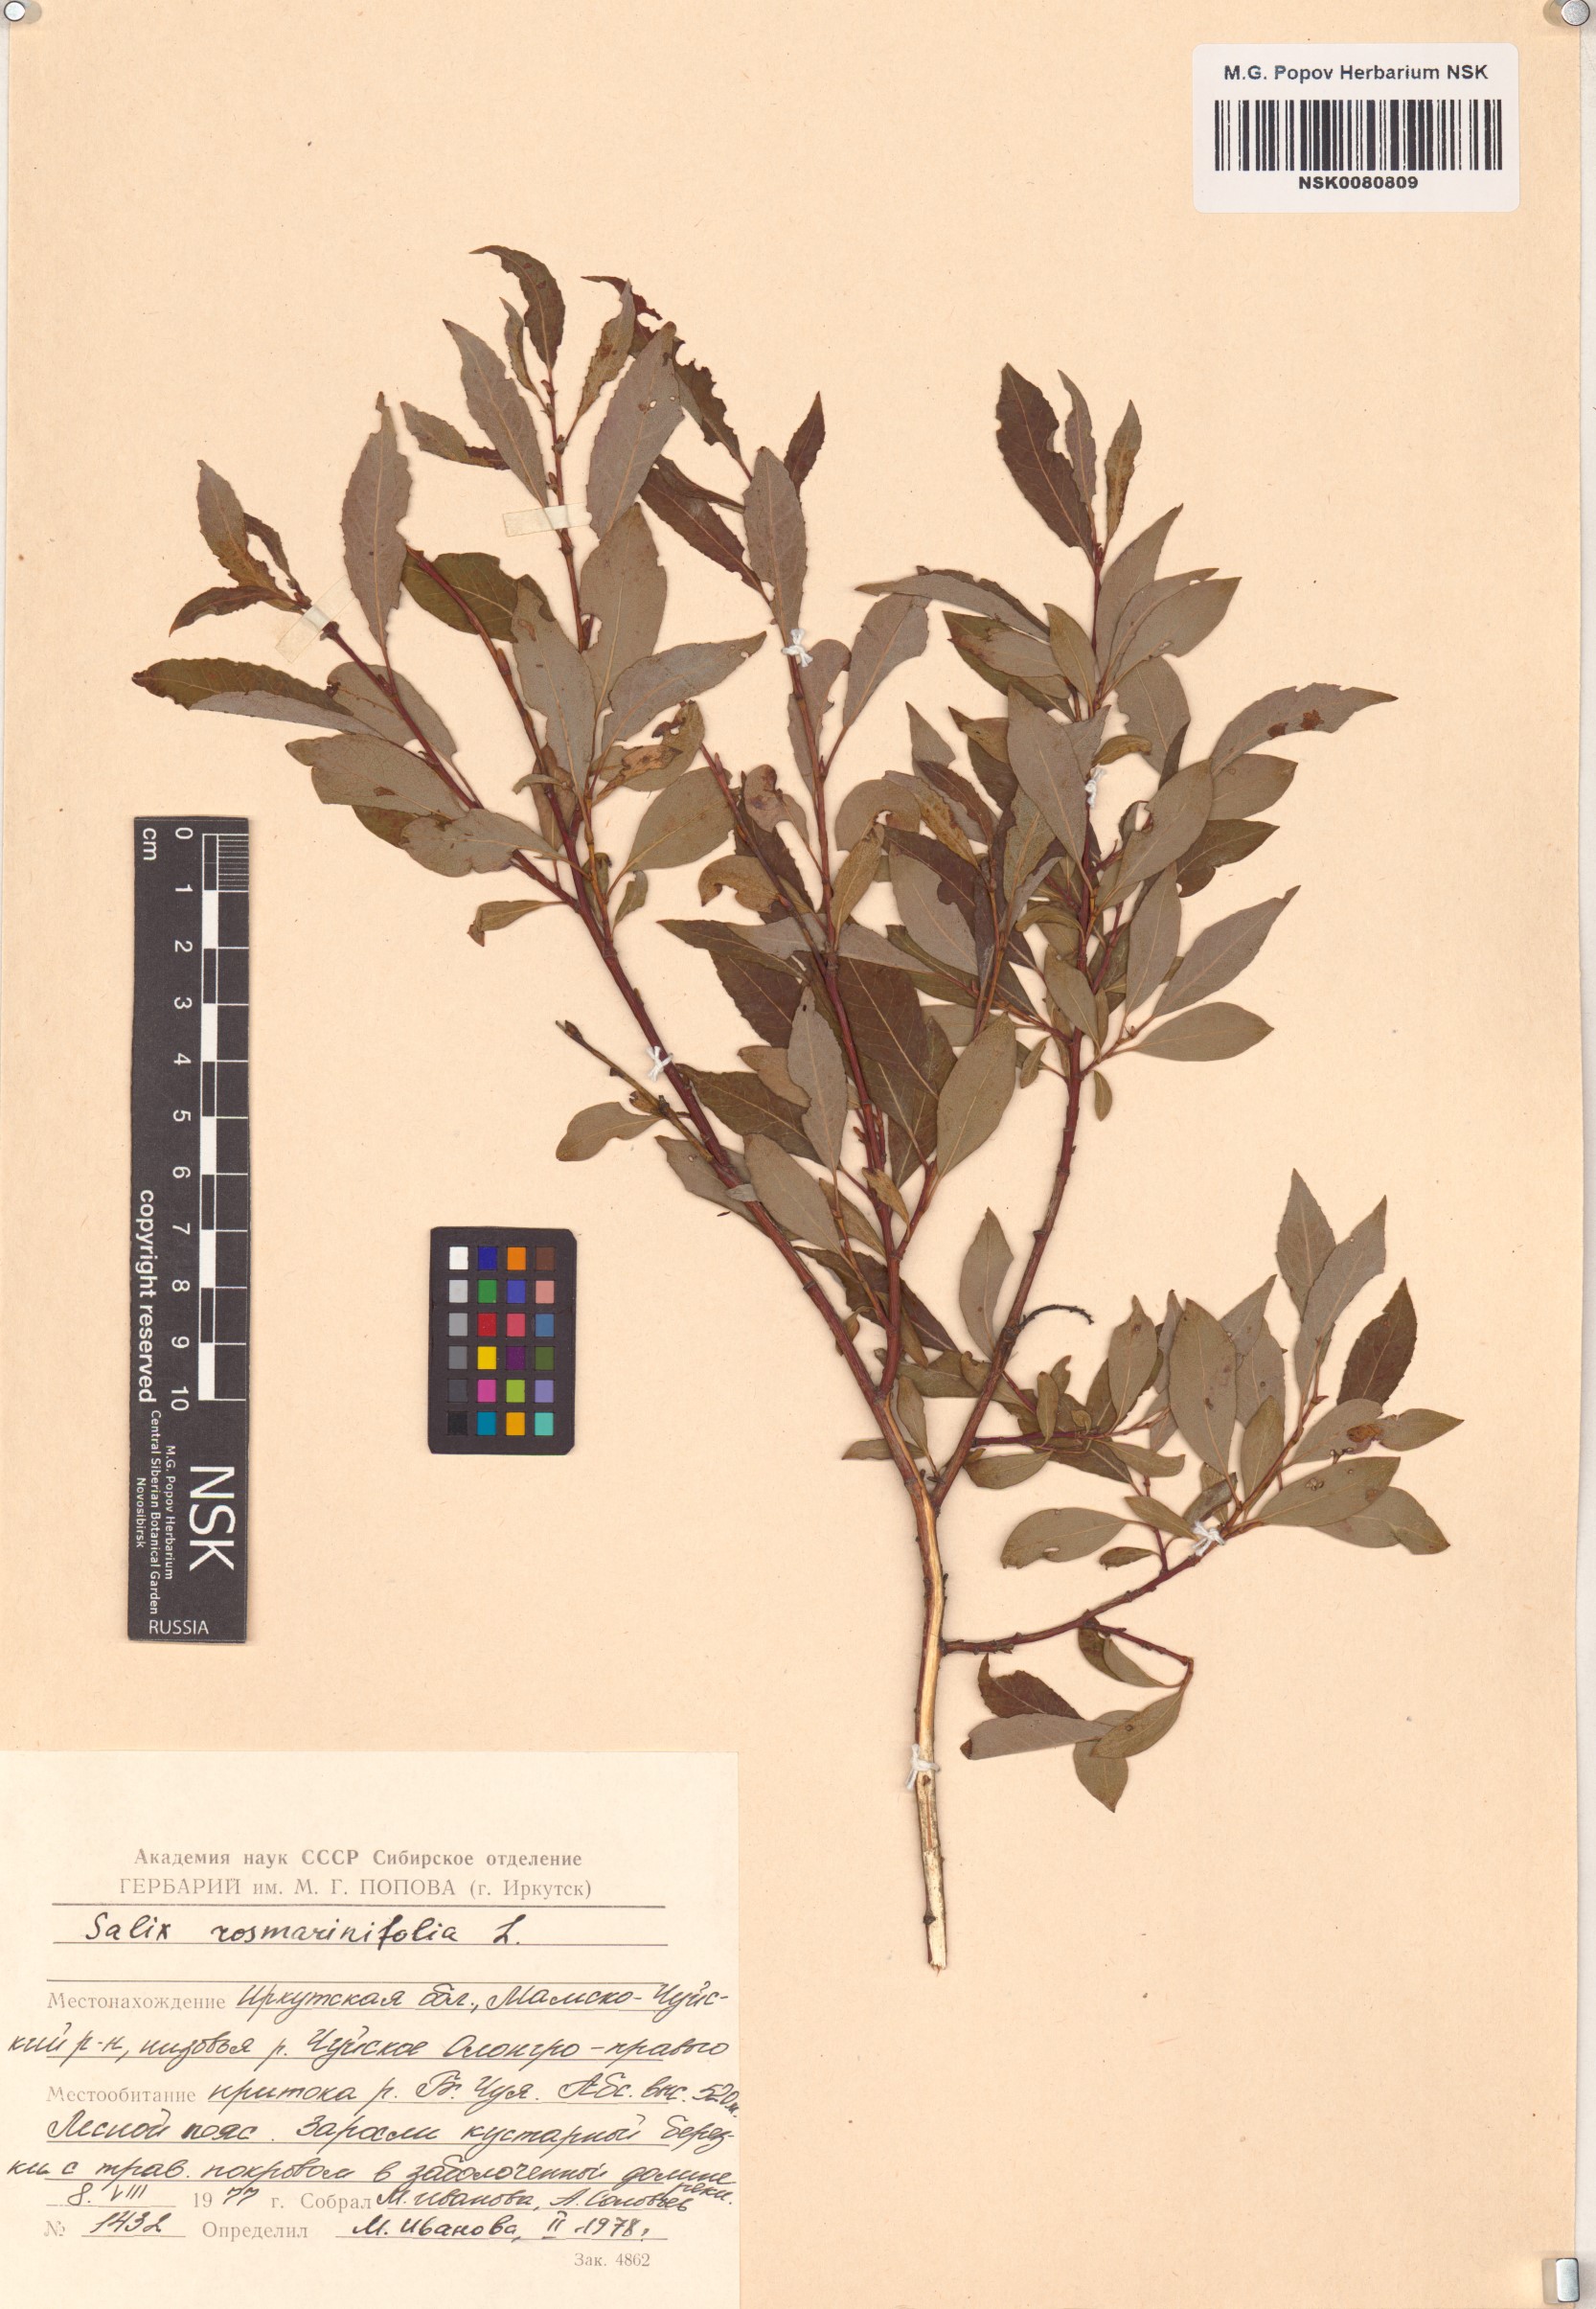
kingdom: Plantae
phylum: Tracheophyta
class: Magnoliopsida
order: Malpighiales
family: Salicaceae
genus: Salix
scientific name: Salix rosmarinifolia
